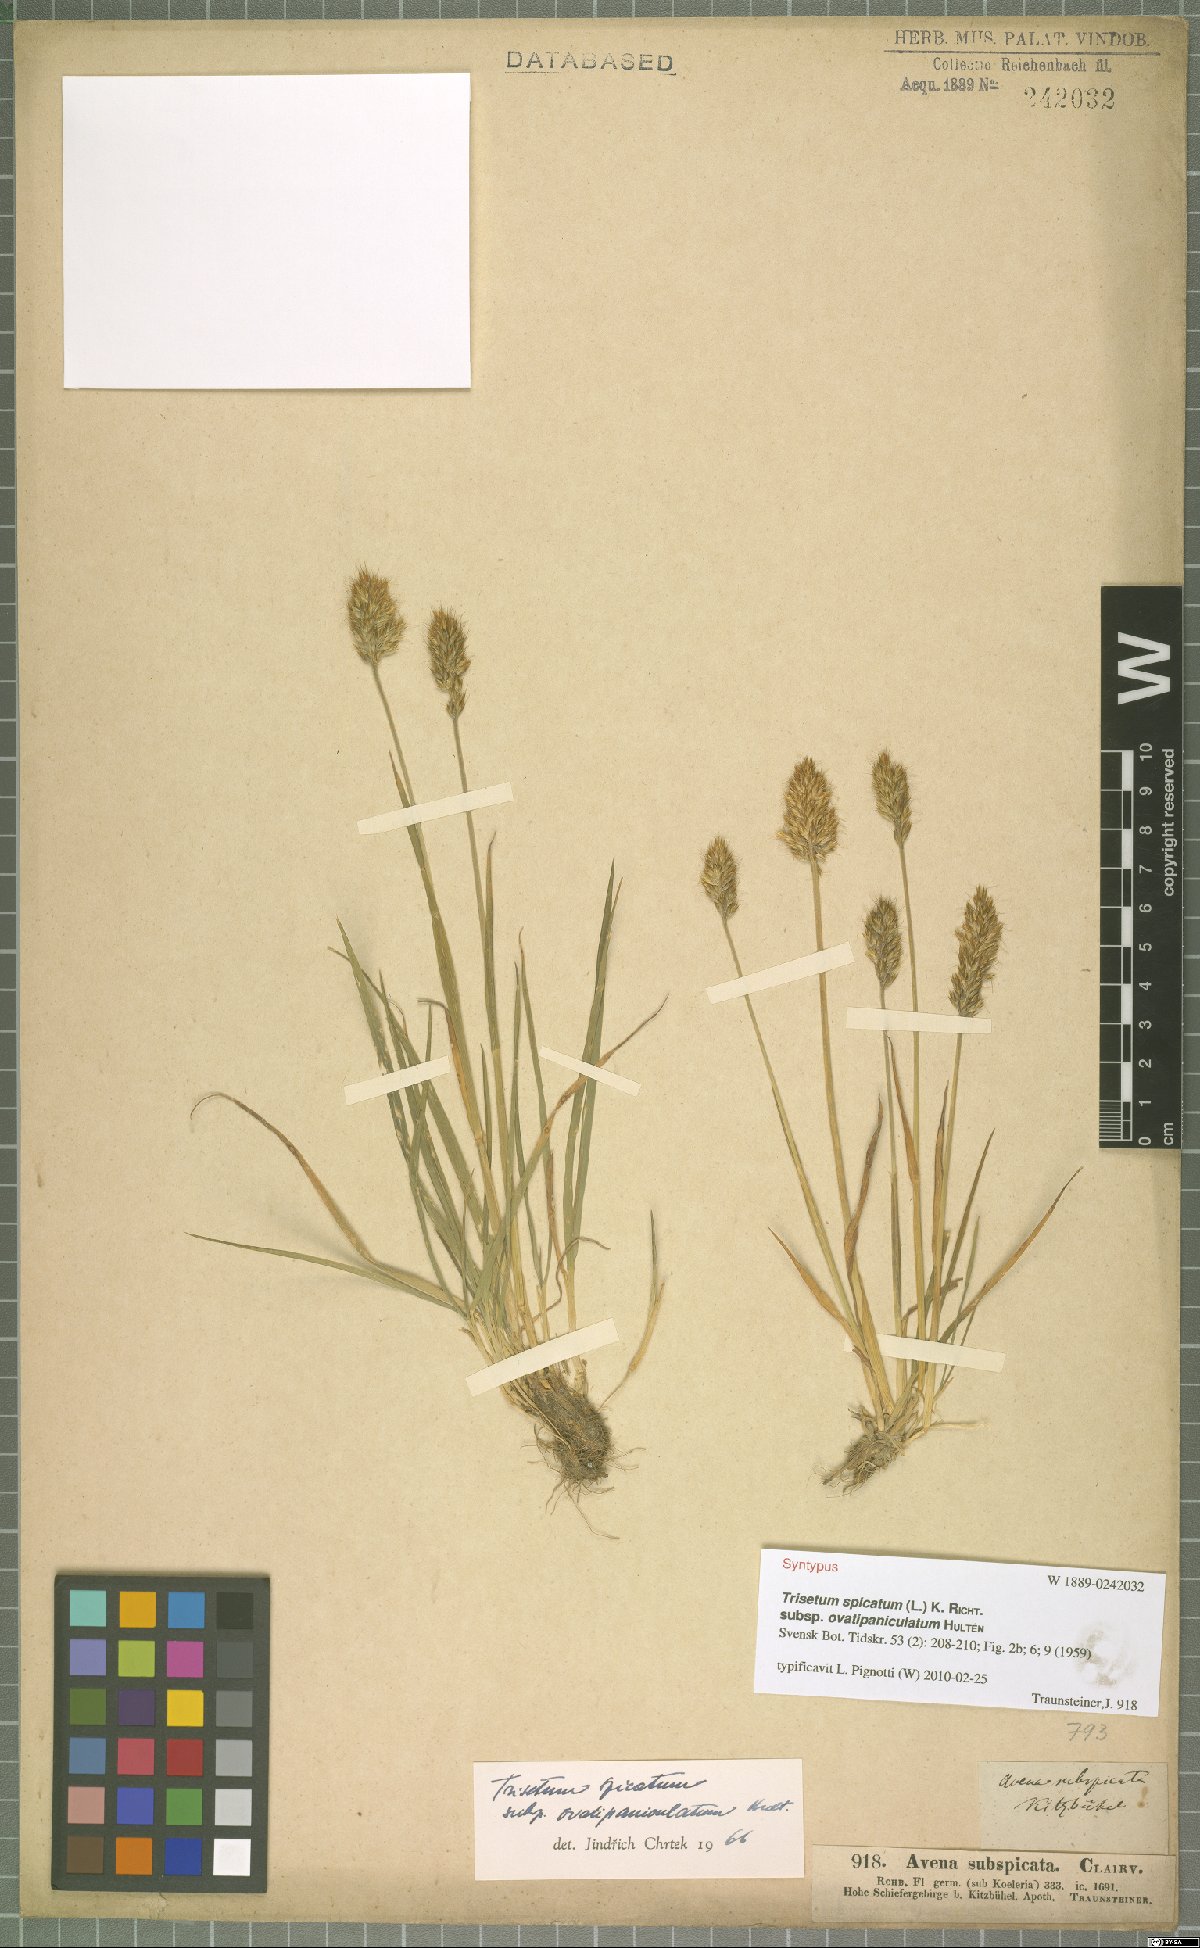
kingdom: Plantae
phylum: Tracheophyta
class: Liliopsida
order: Poales
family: Poaceae
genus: Koeleria
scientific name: Koeleria spicata
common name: Mountain trisetum
